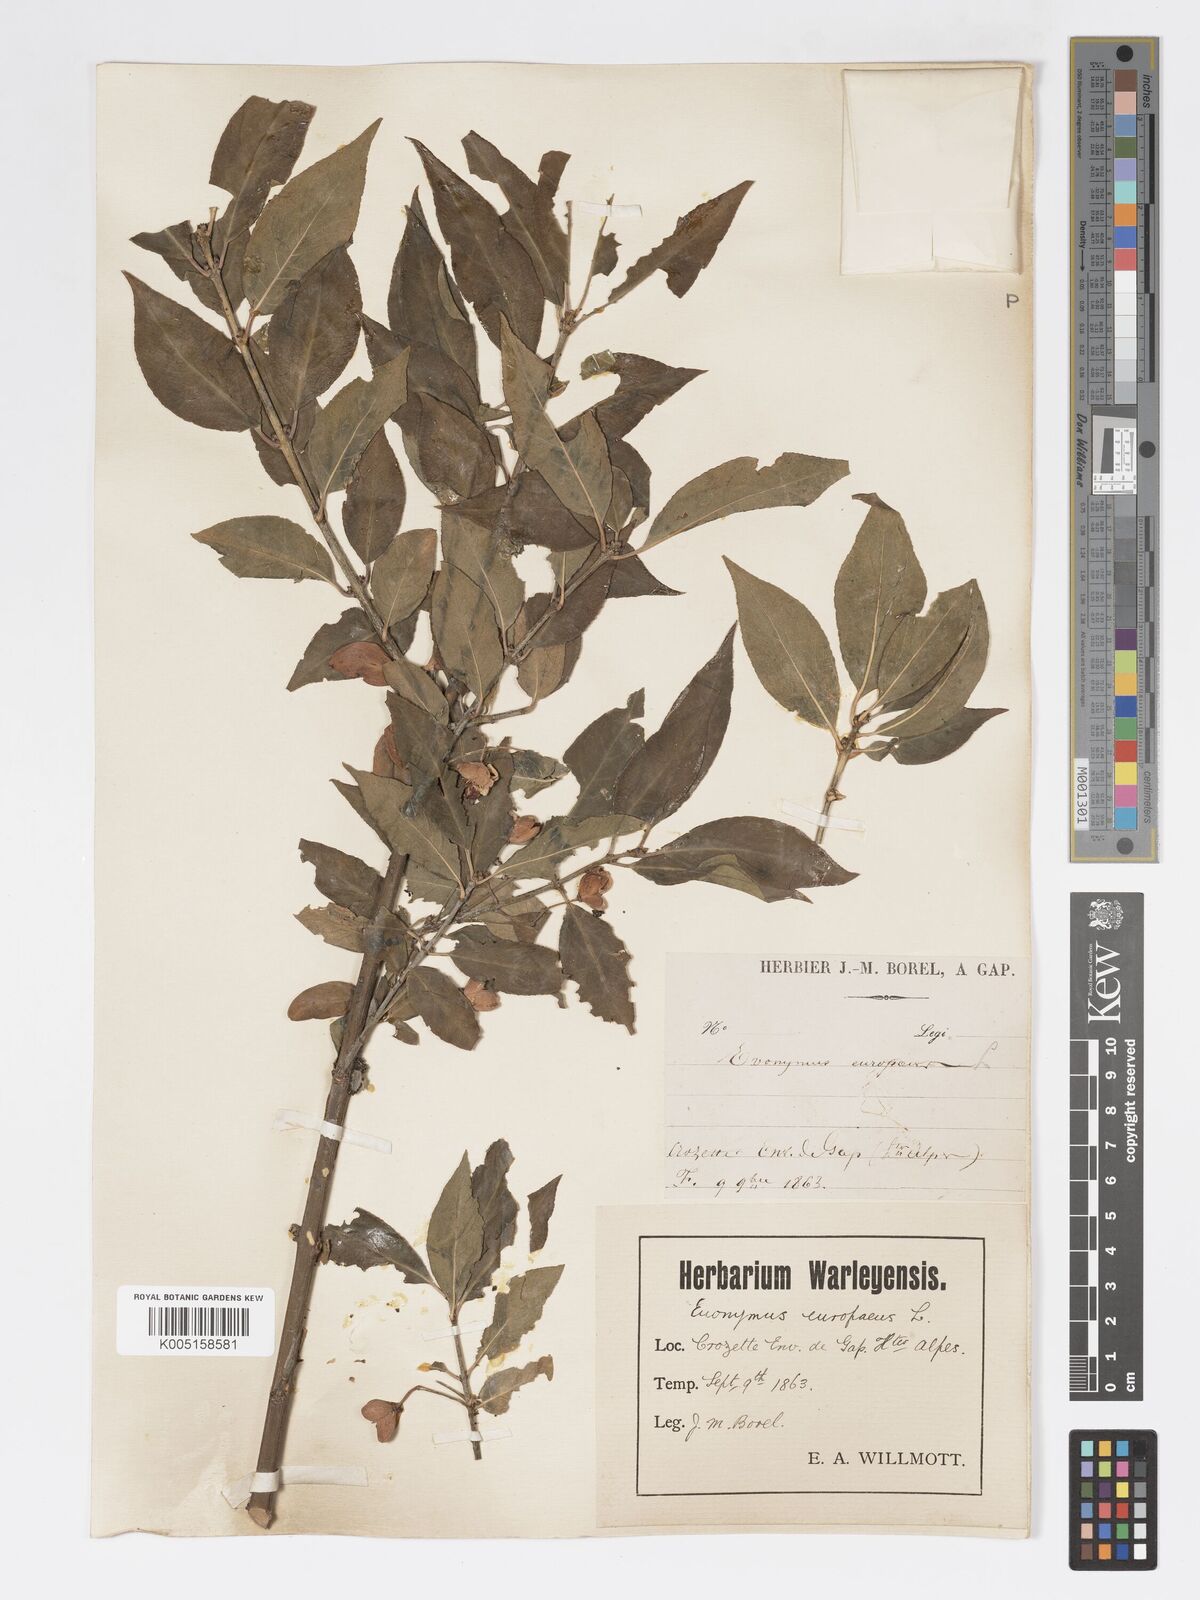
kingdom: Plantae
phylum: Tracheophyta
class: Magnoliopsida
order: Celastrales
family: Celastraceae
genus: Euonymus
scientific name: Euonymus europaeus
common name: Spindle
